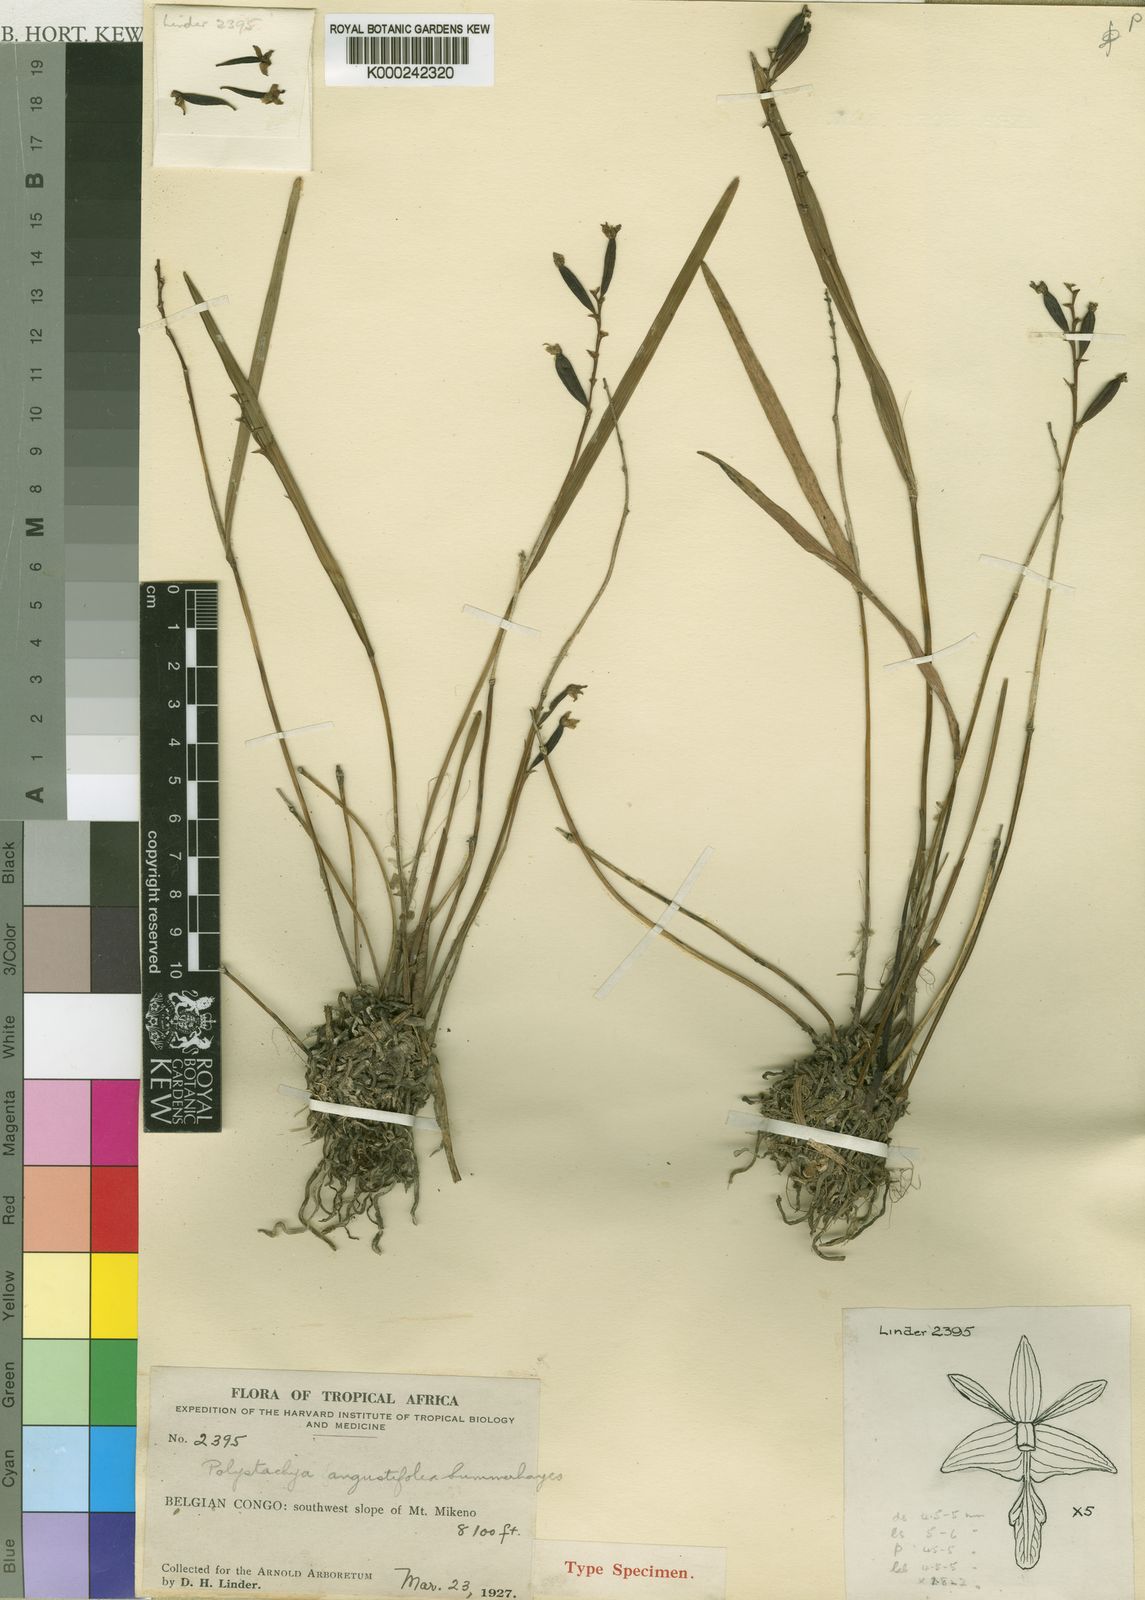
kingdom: Plantae
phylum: Tracheophyta
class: Liliopsida
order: Asparagales
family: Orchidaceae
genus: Polystachya
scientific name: Polystachya mildbraedii
